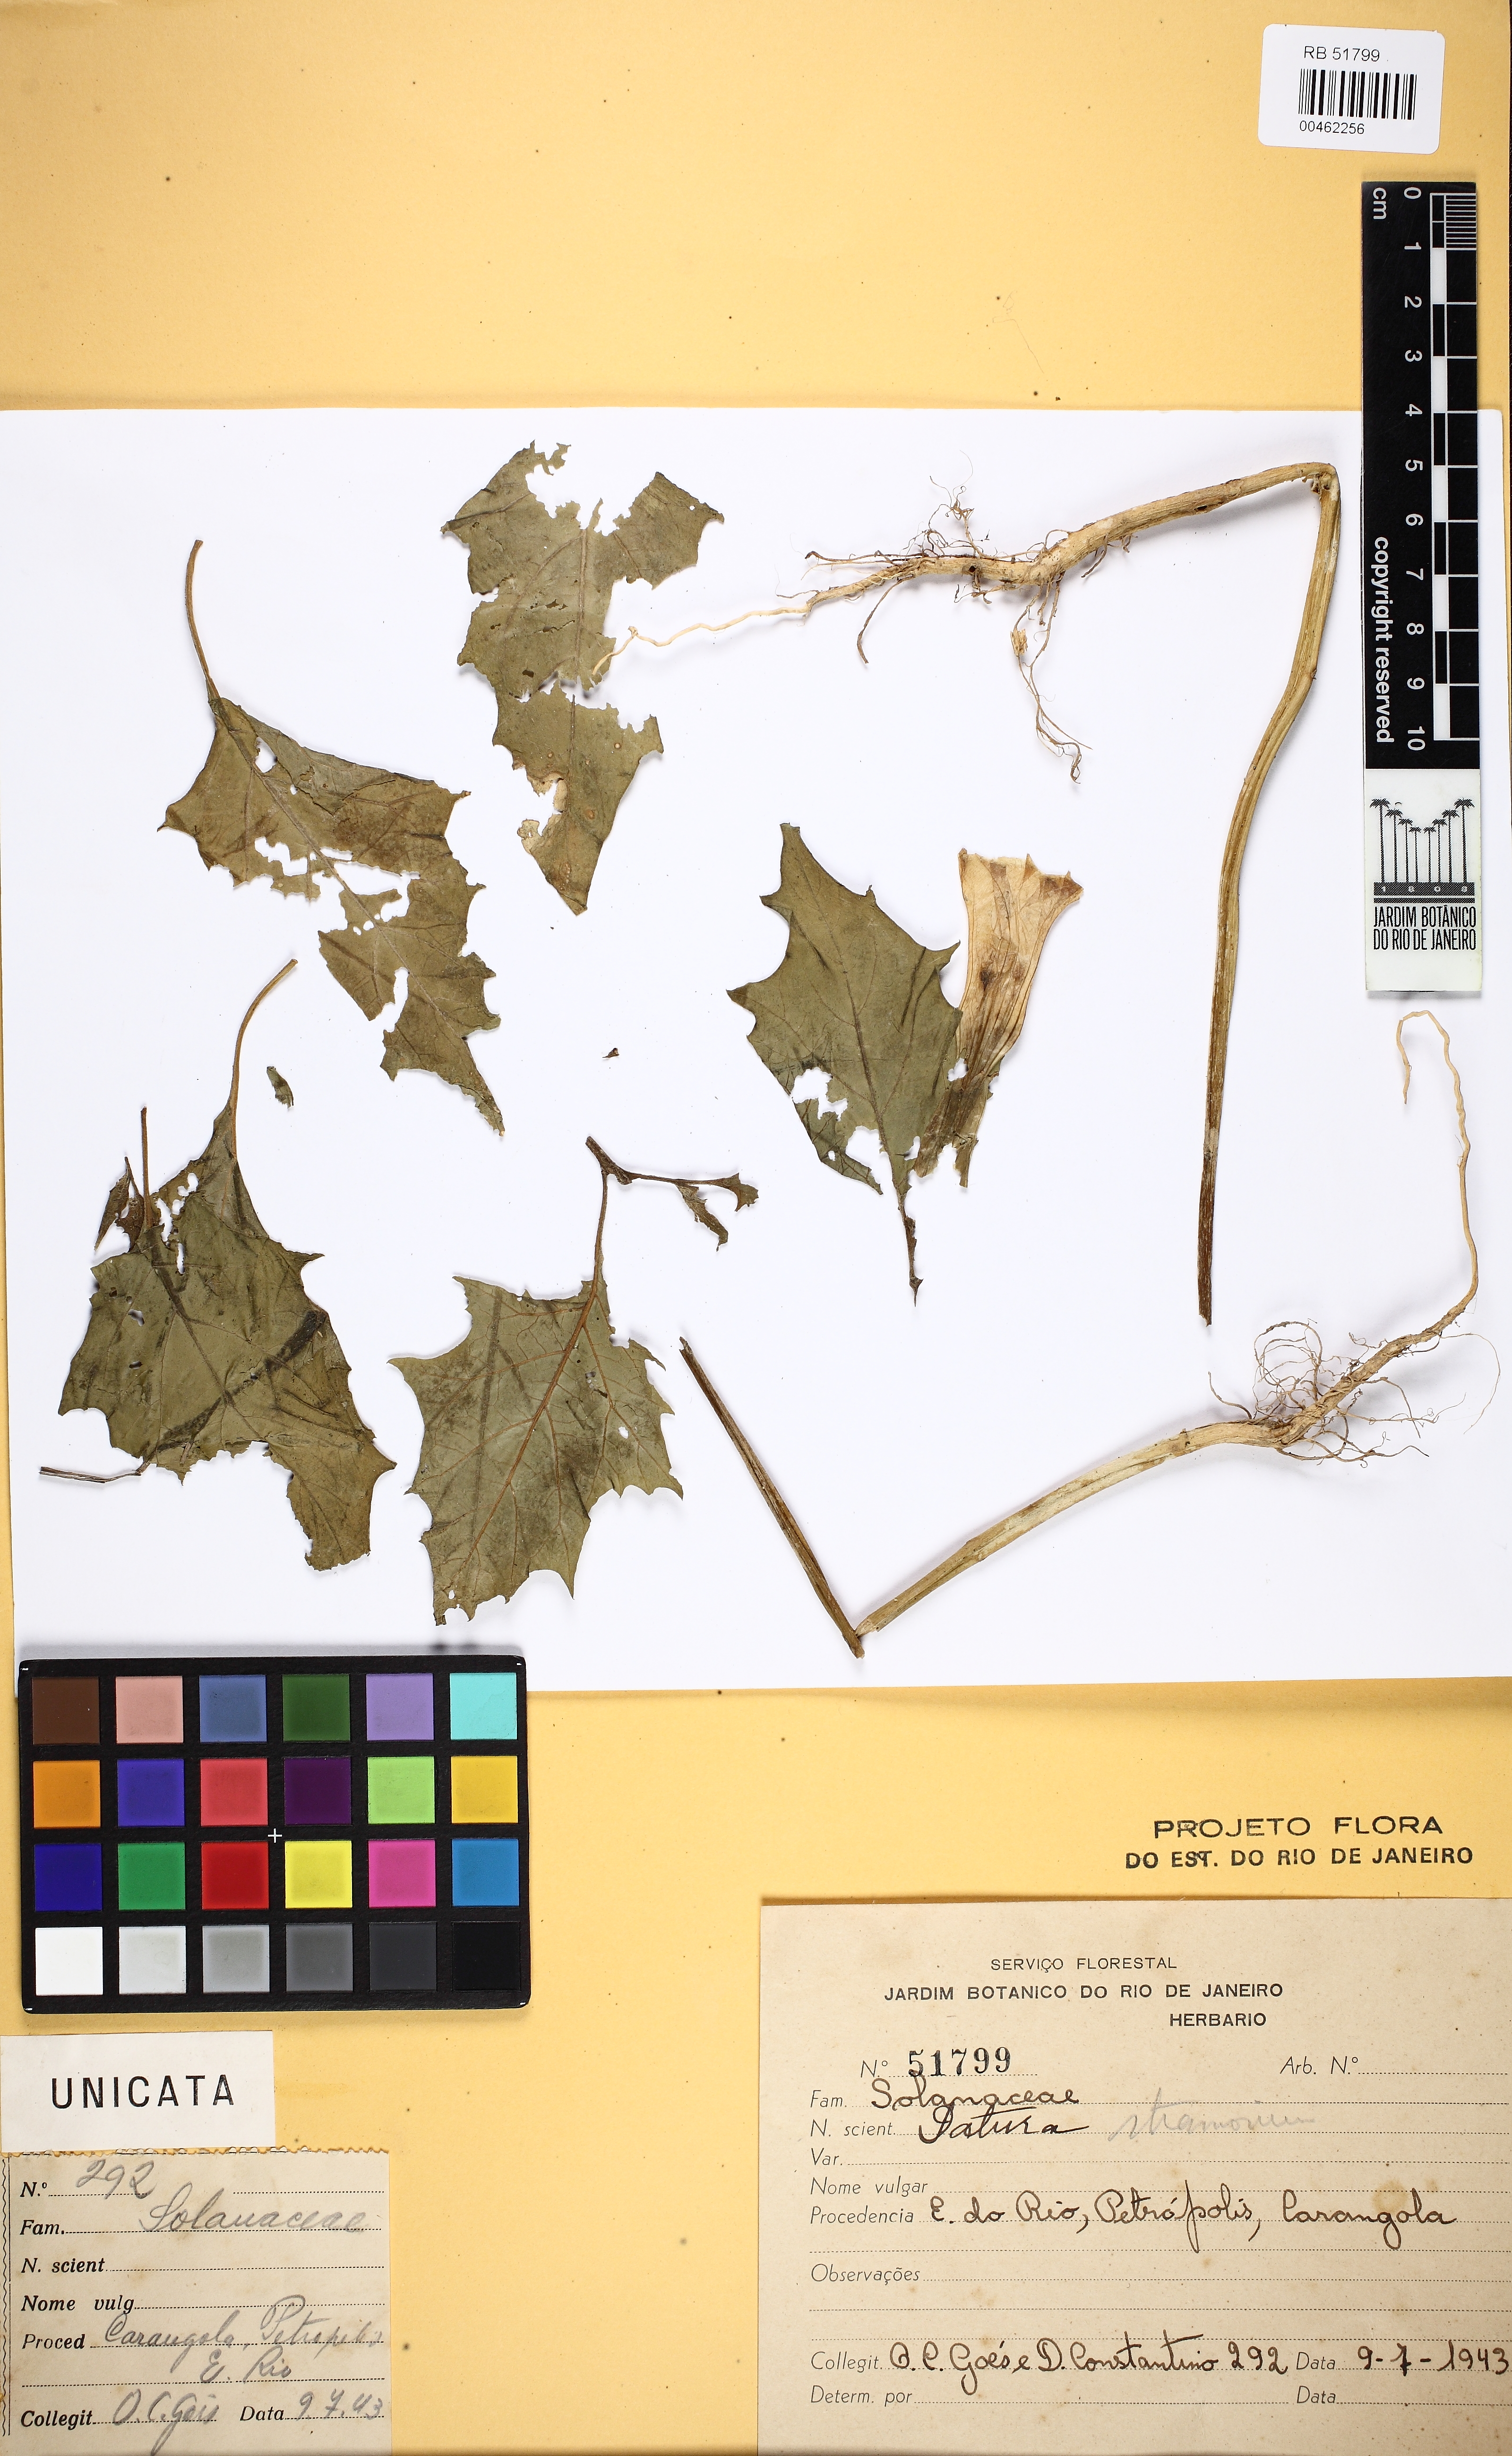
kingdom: Plantae
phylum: Tracheophyta
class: Magnoliopsida
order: Solanales
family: Solanaceae
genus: Datura
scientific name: Datura stramonium
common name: Thorn-apple
